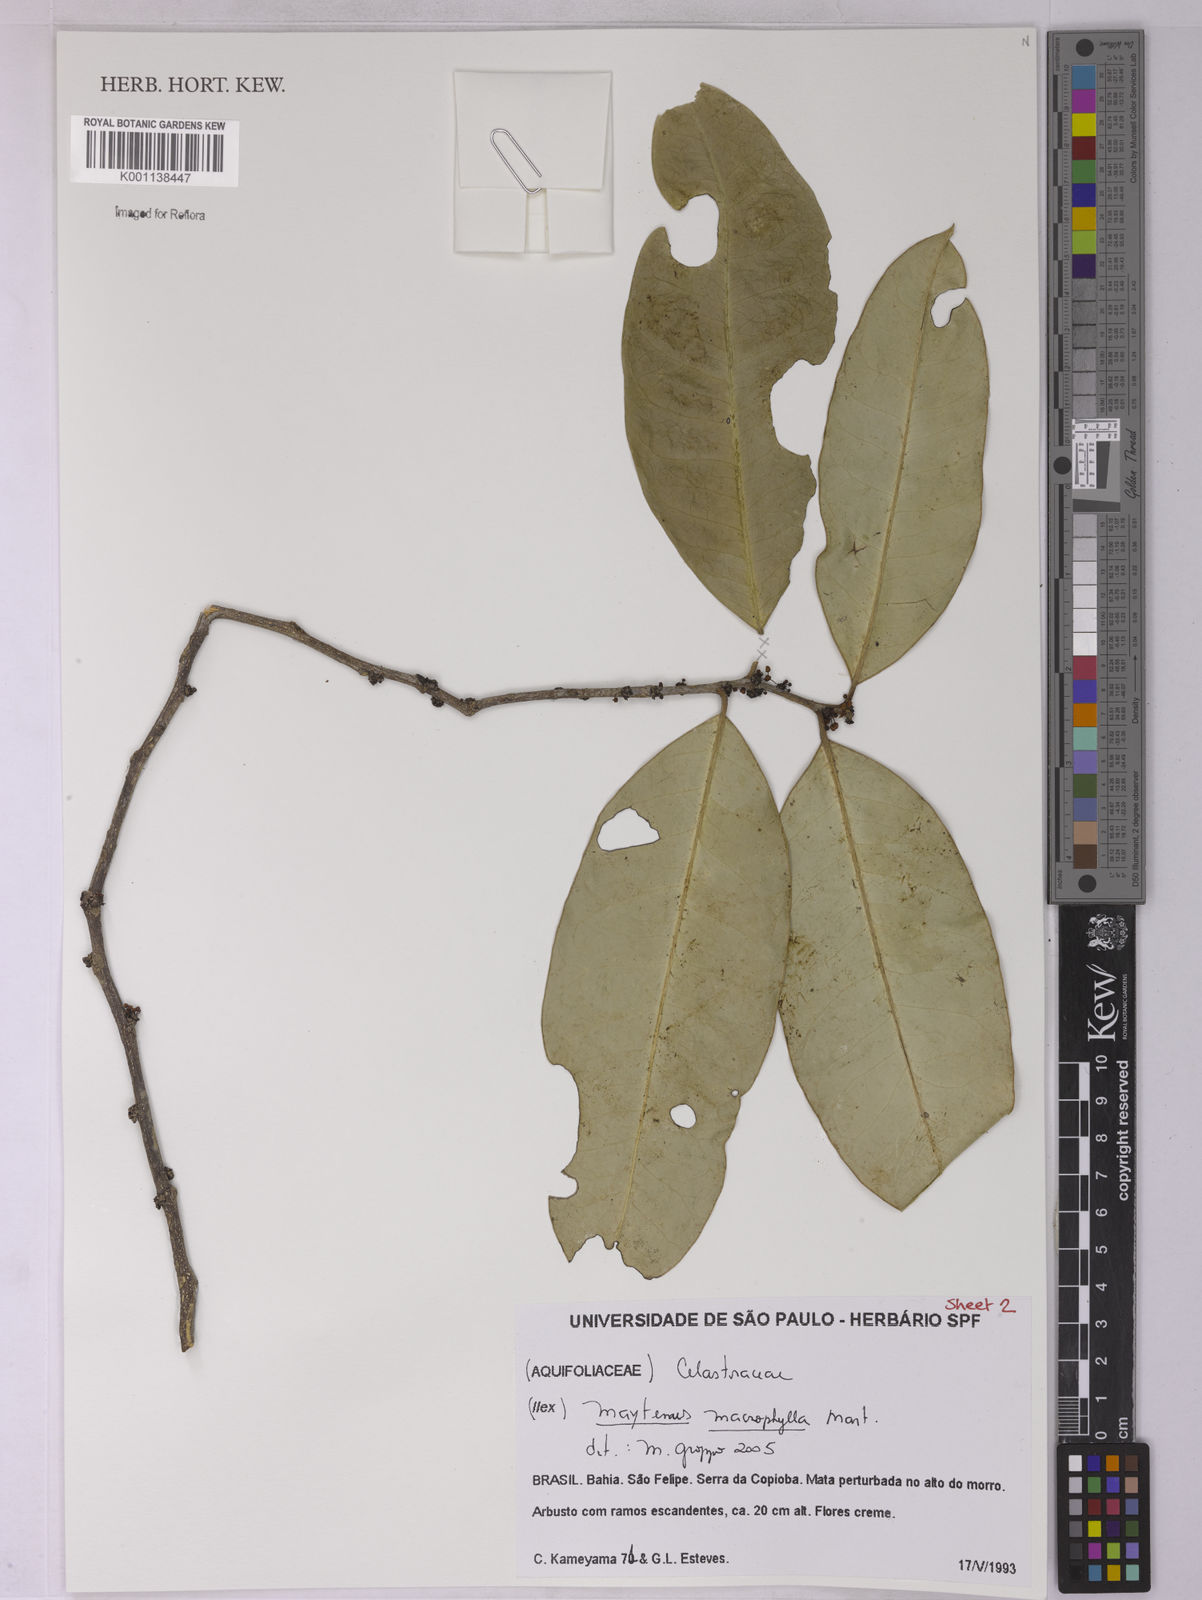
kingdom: Plantae
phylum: Tracheophyta
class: Magnoliopsida
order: Celastrales
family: Celastraceae
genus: Monteverdia
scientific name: Monteverdia macrophylla
